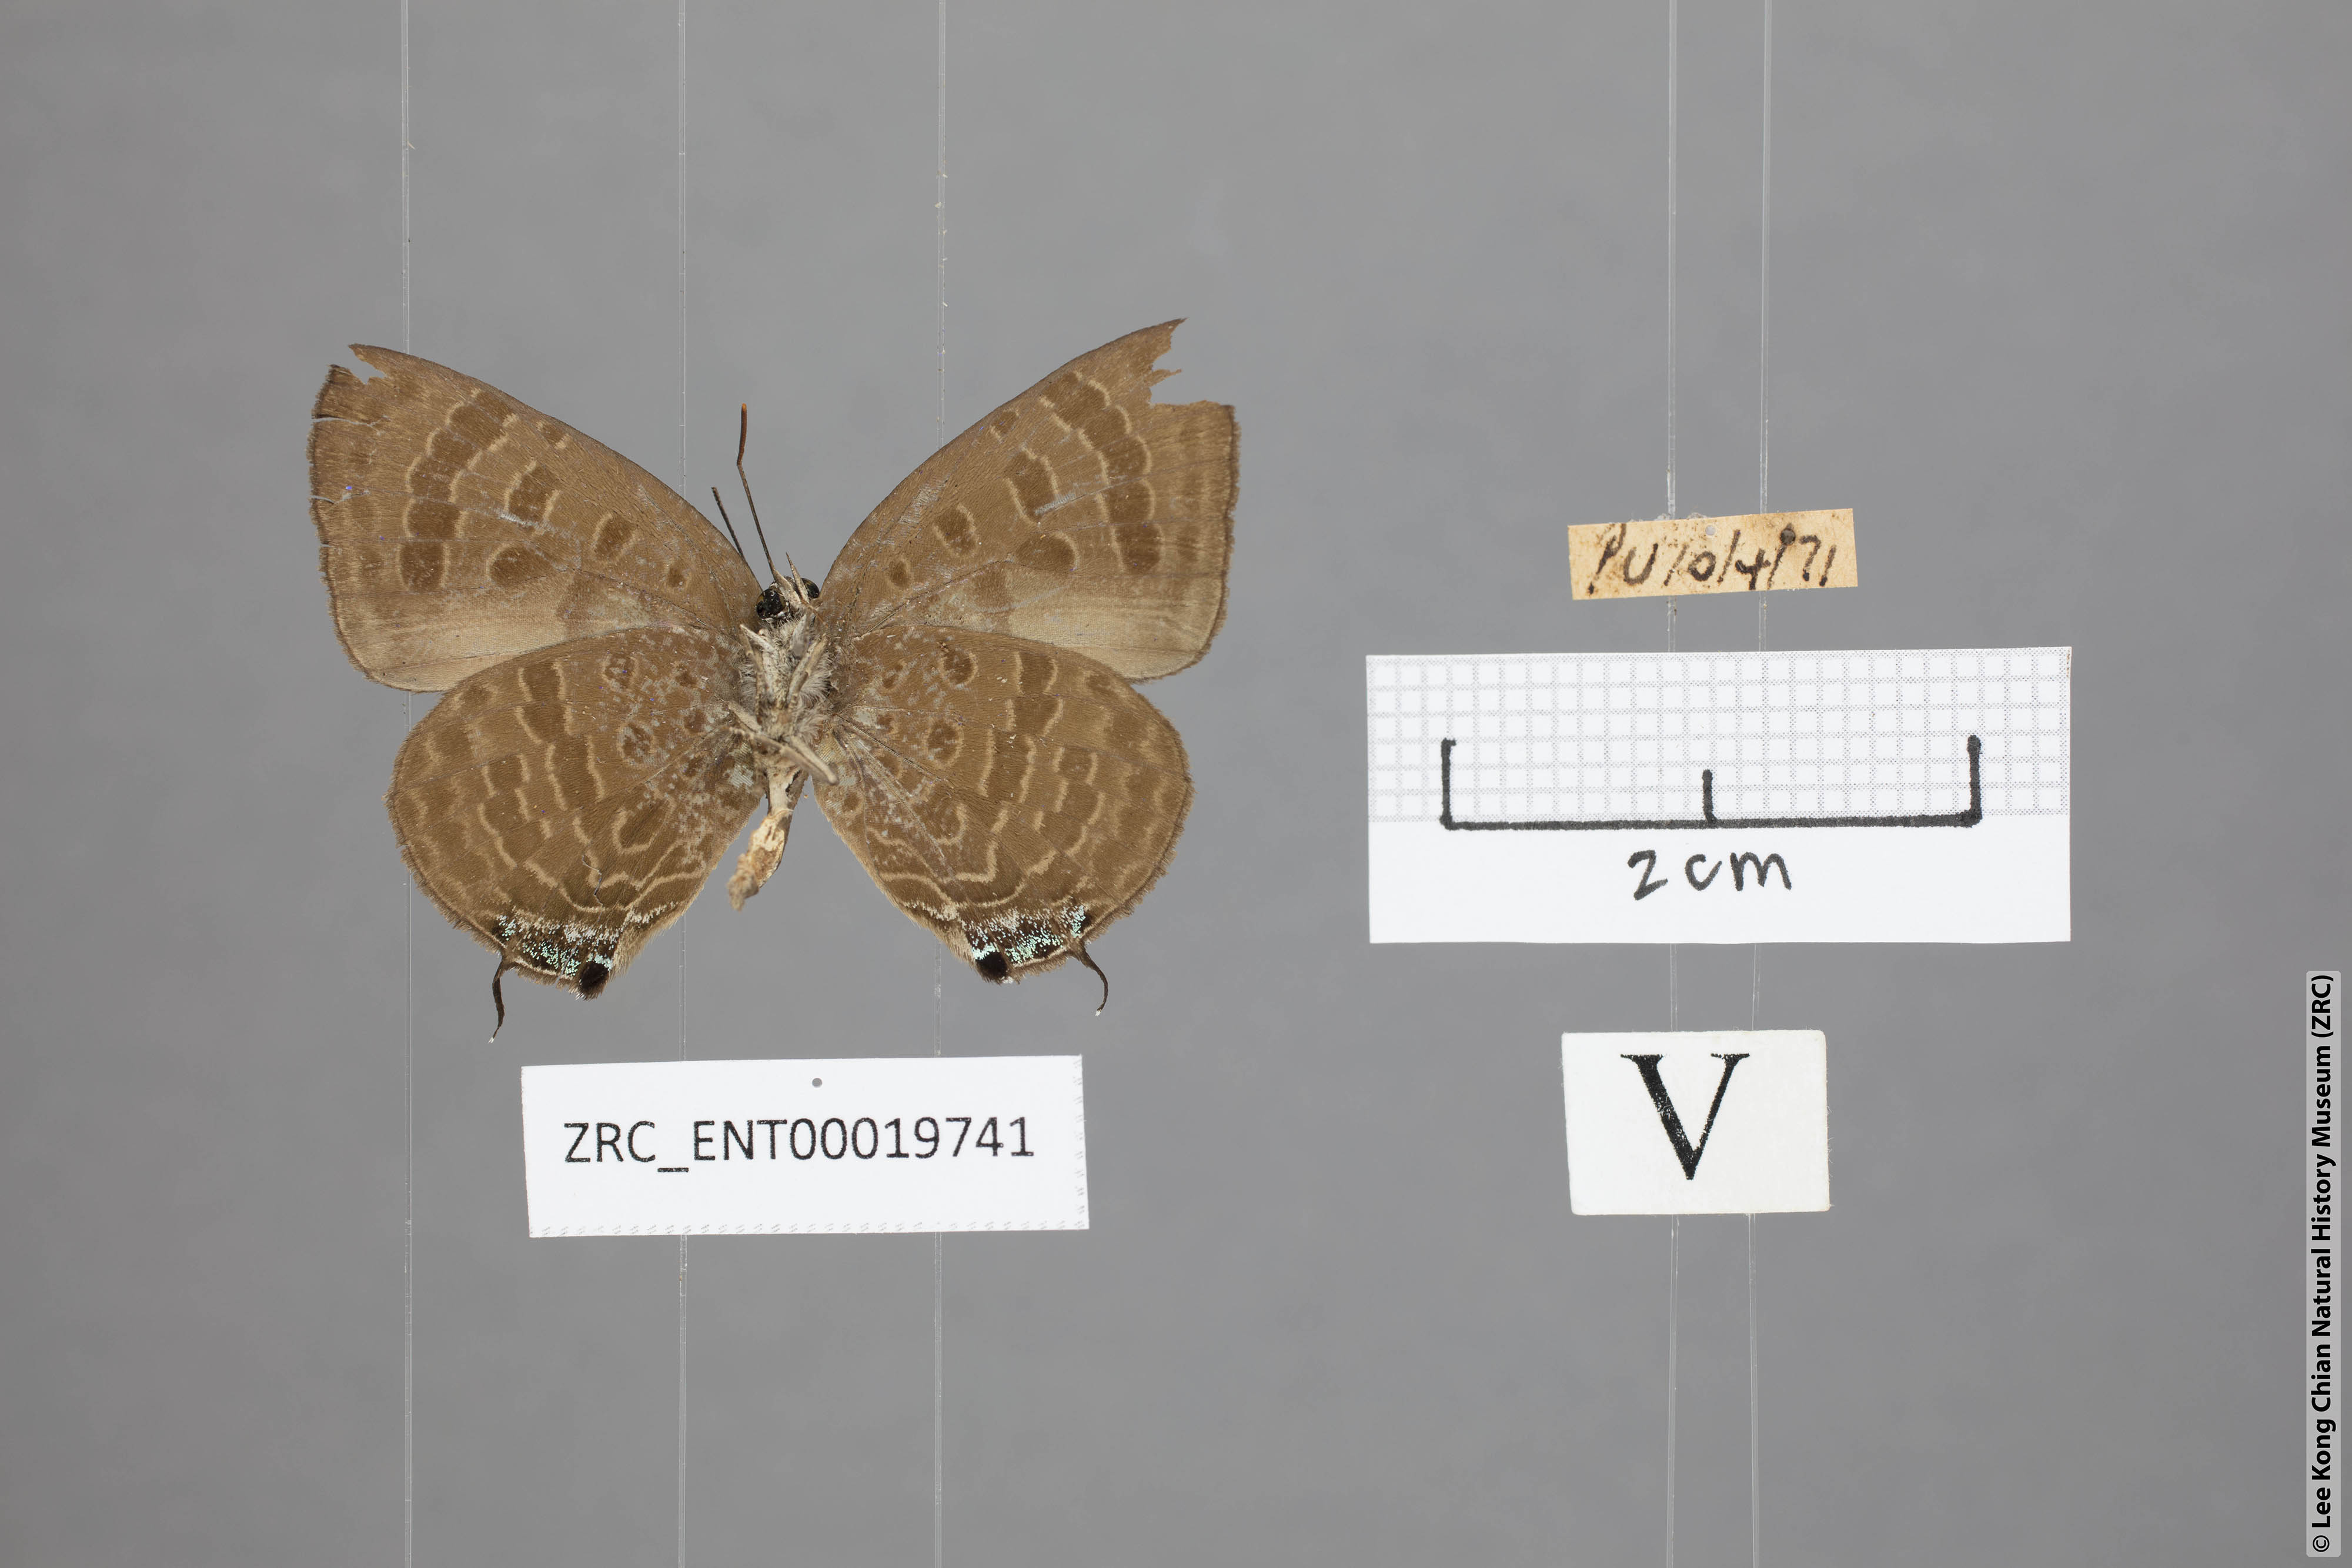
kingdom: Animalia
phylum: Arthropoda
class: Insecta
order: Lepidoptera
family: Lycaenidae
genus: Arhopala
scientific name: Arhopala normani
